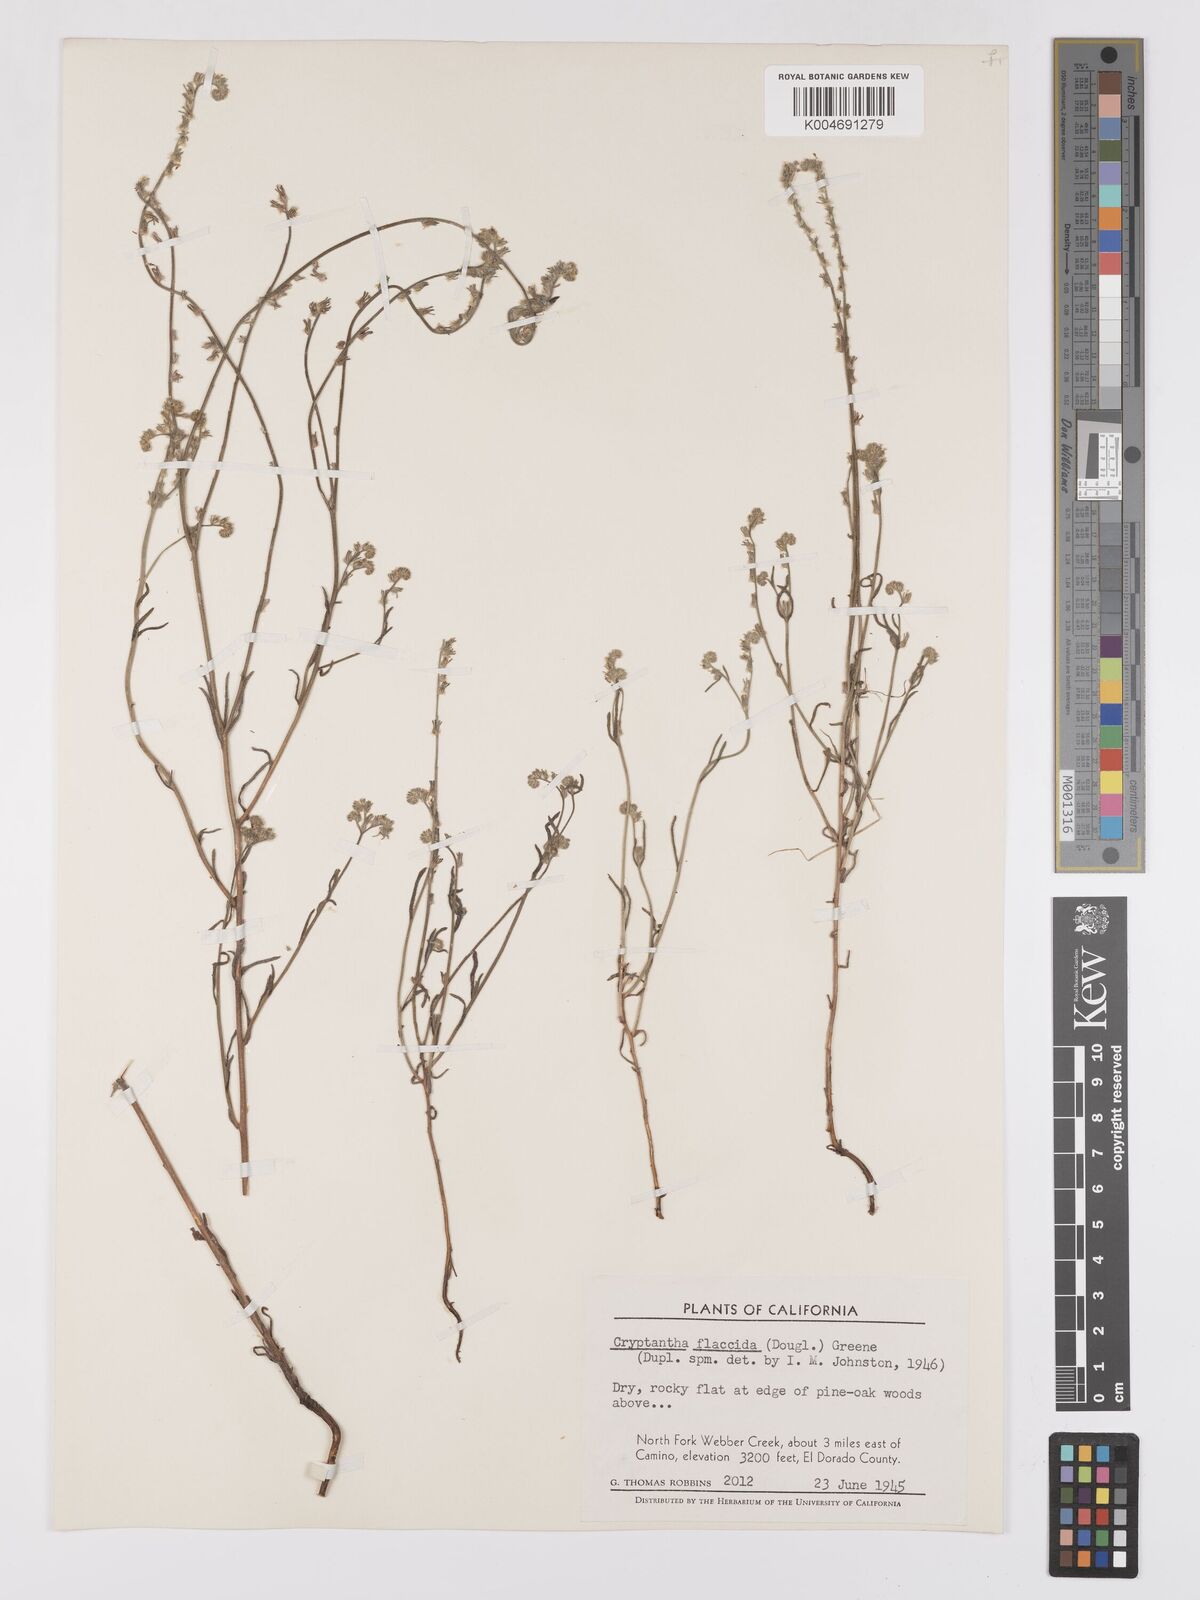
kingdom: Plantae
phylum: Tracheophyta
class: Magnoliopsida
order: Boraginales
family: Boraginaceae
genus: Cryptantha
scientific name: Cryptantha flaccida
